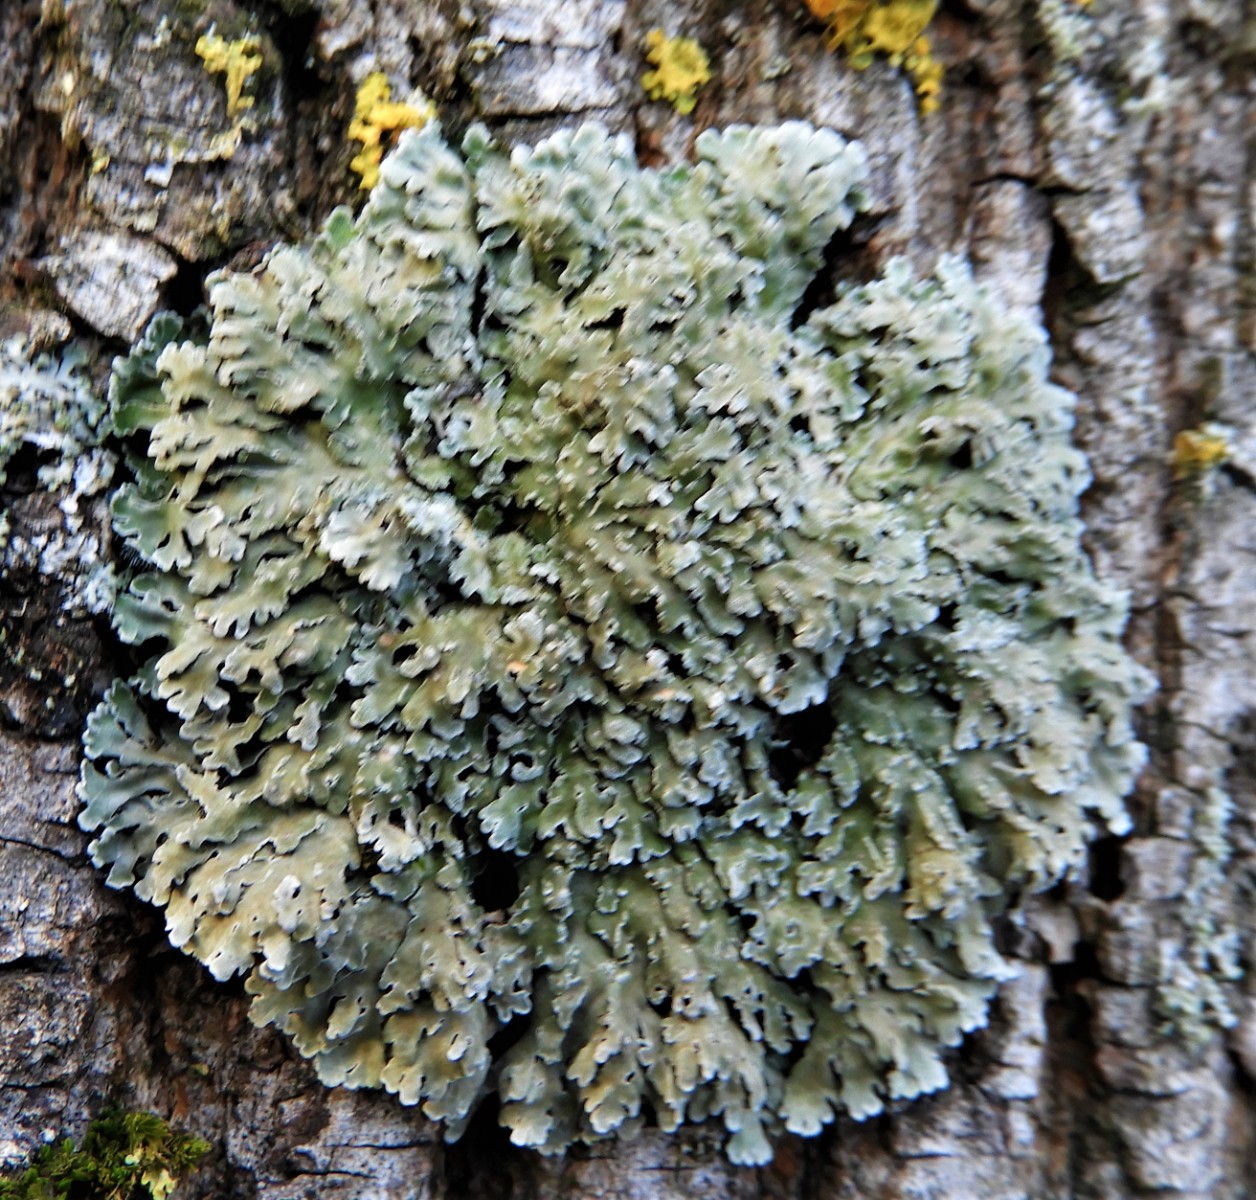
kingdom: Fungi
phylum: Ascomycota
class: Lecanoromycetes
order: Caliciales
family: Physciaceae
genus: Physconia
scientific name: Physconia distorta
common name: pudret dugrosetlav
